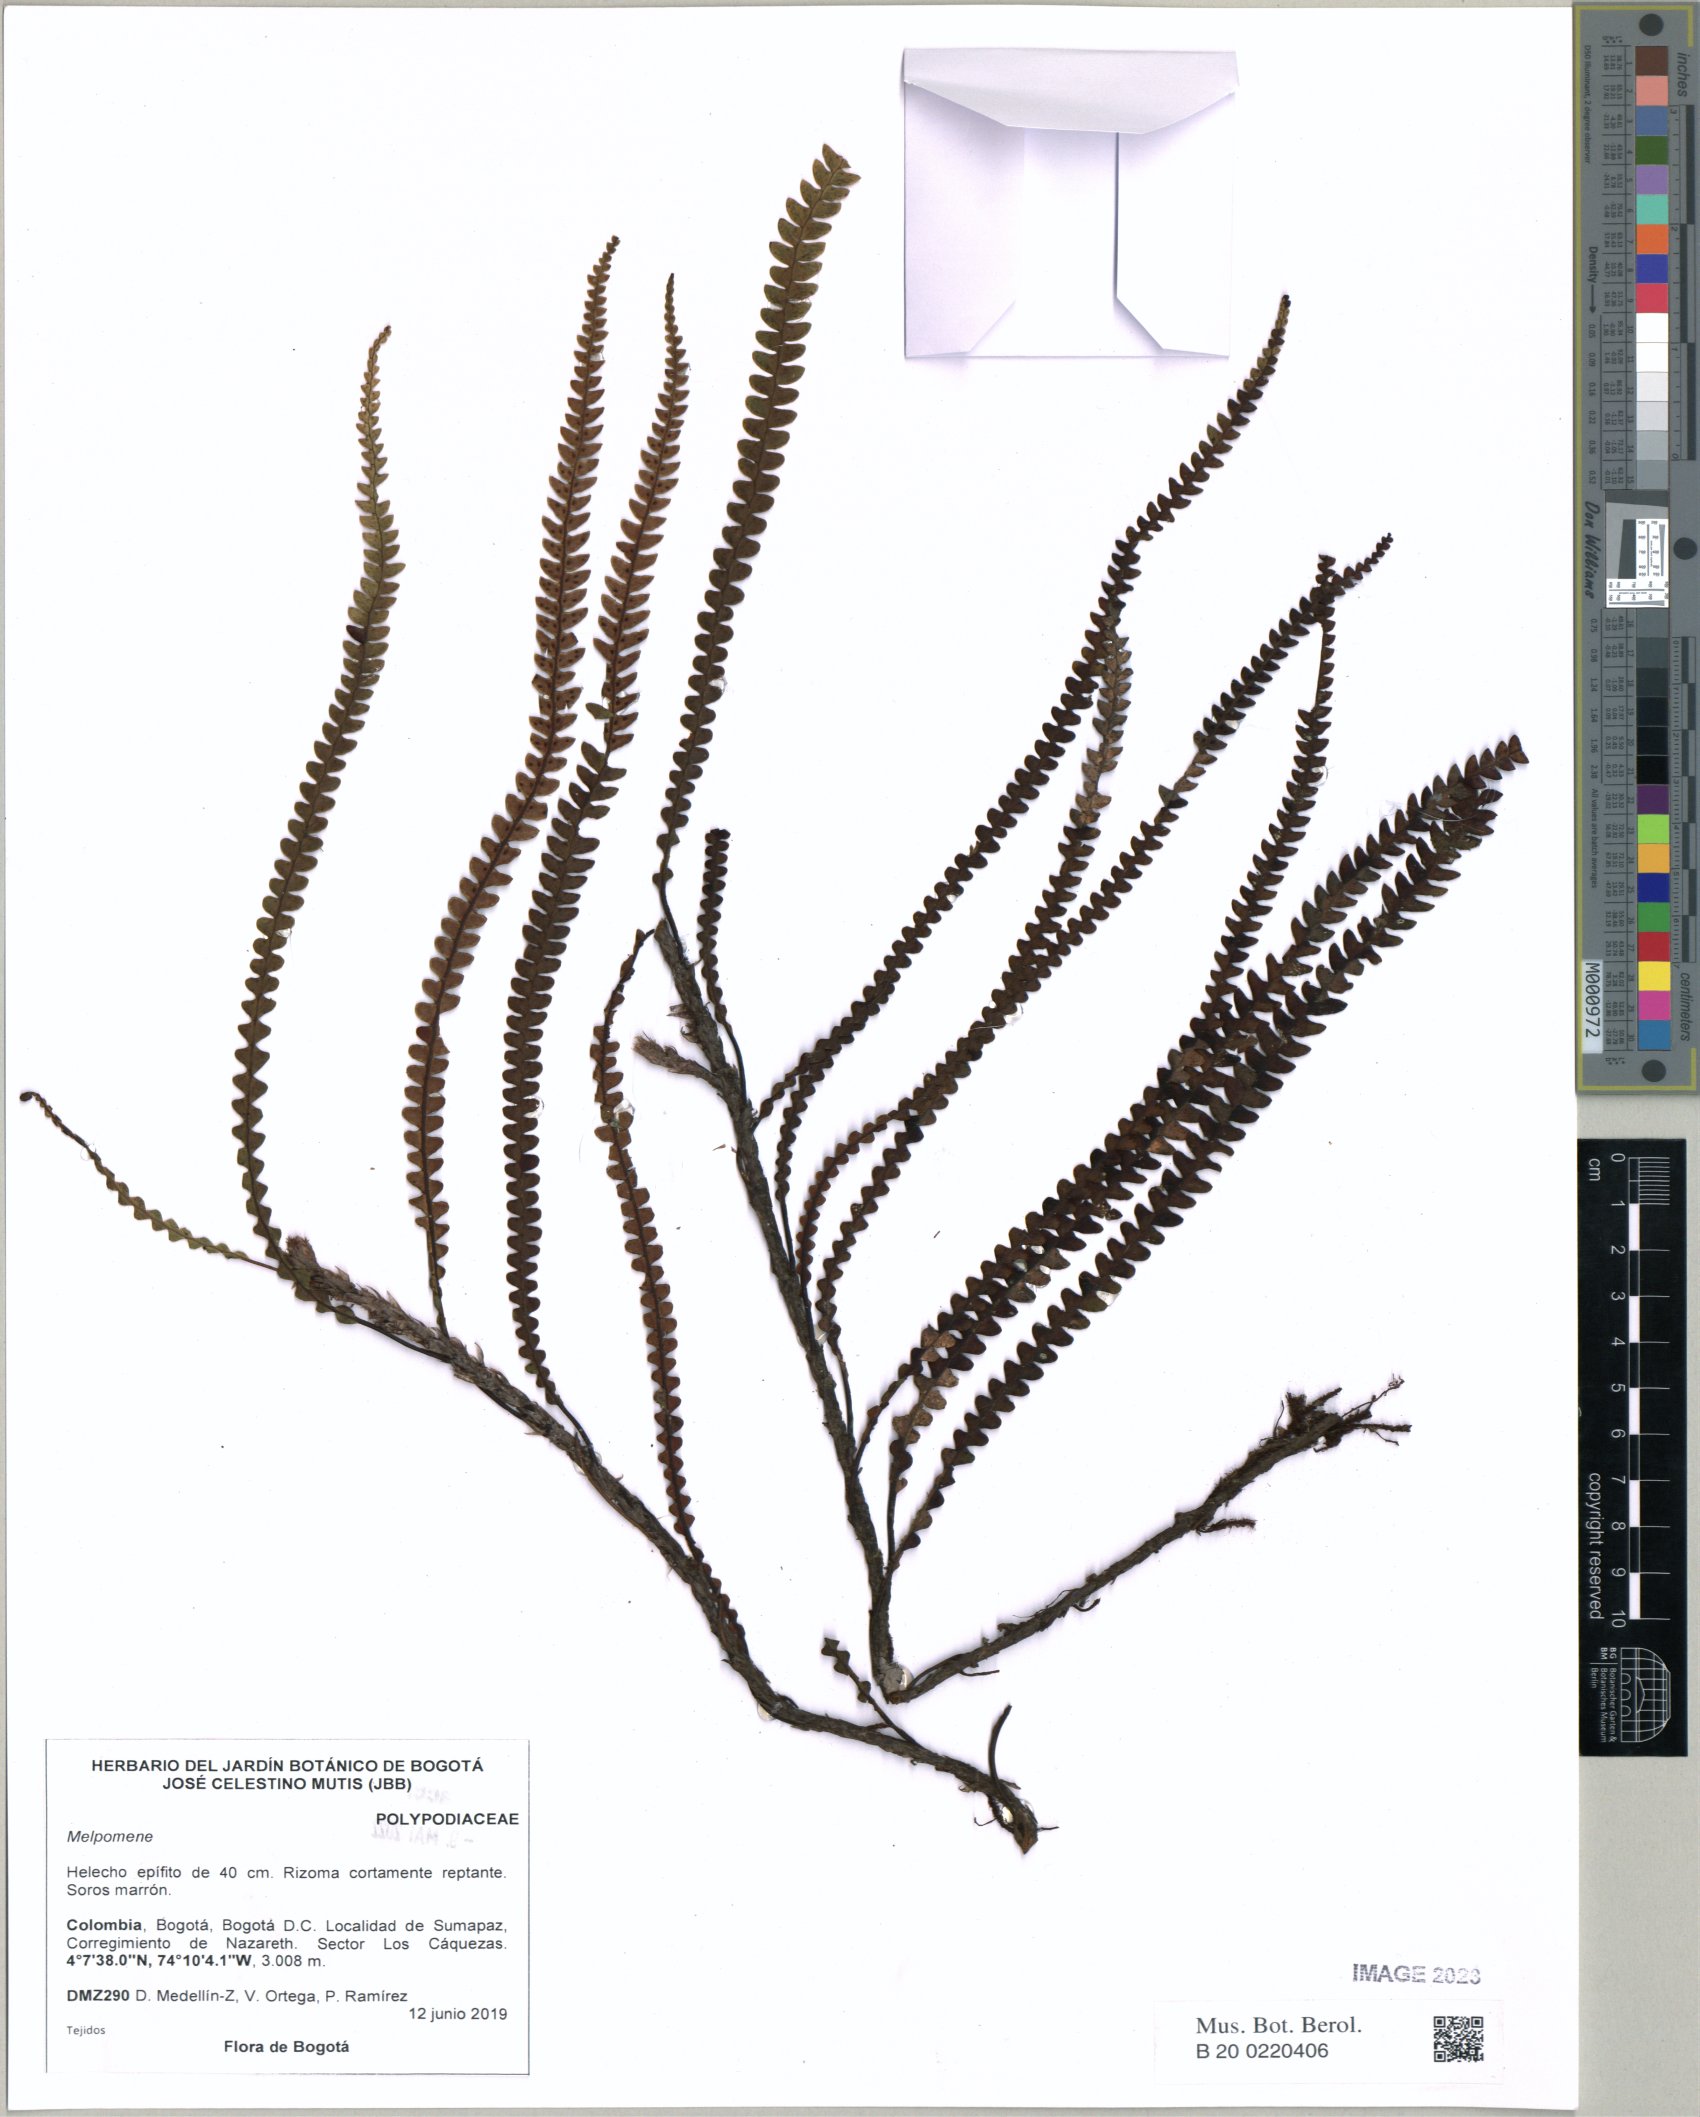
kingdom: Plantae
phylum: Tracheophyta
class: Polypodiopsida
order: Polypodiales
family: Polypodiaceae
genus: Melpomene
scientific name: Melpomene
